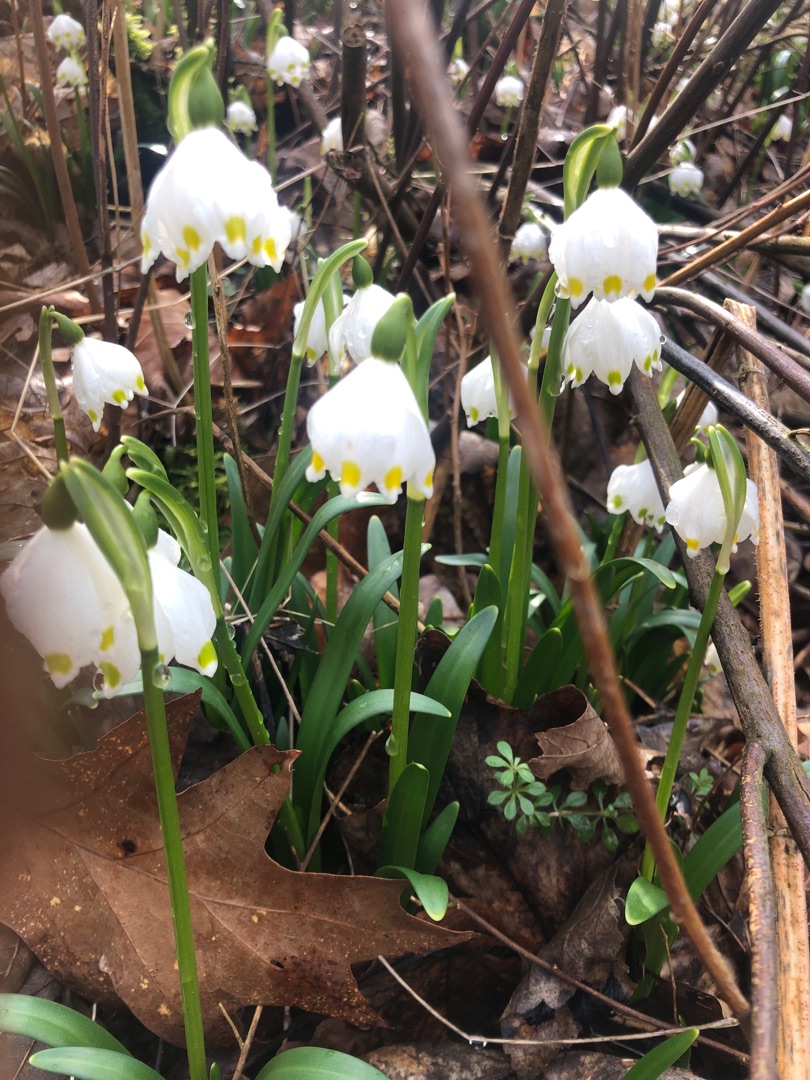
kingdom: Plantae
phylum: Tracheophyta
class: Liliopsida
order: Asparagales
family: Amaryllidaceae
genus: Leucojum
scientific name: Leucojum vernum
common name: Dorthealilje
